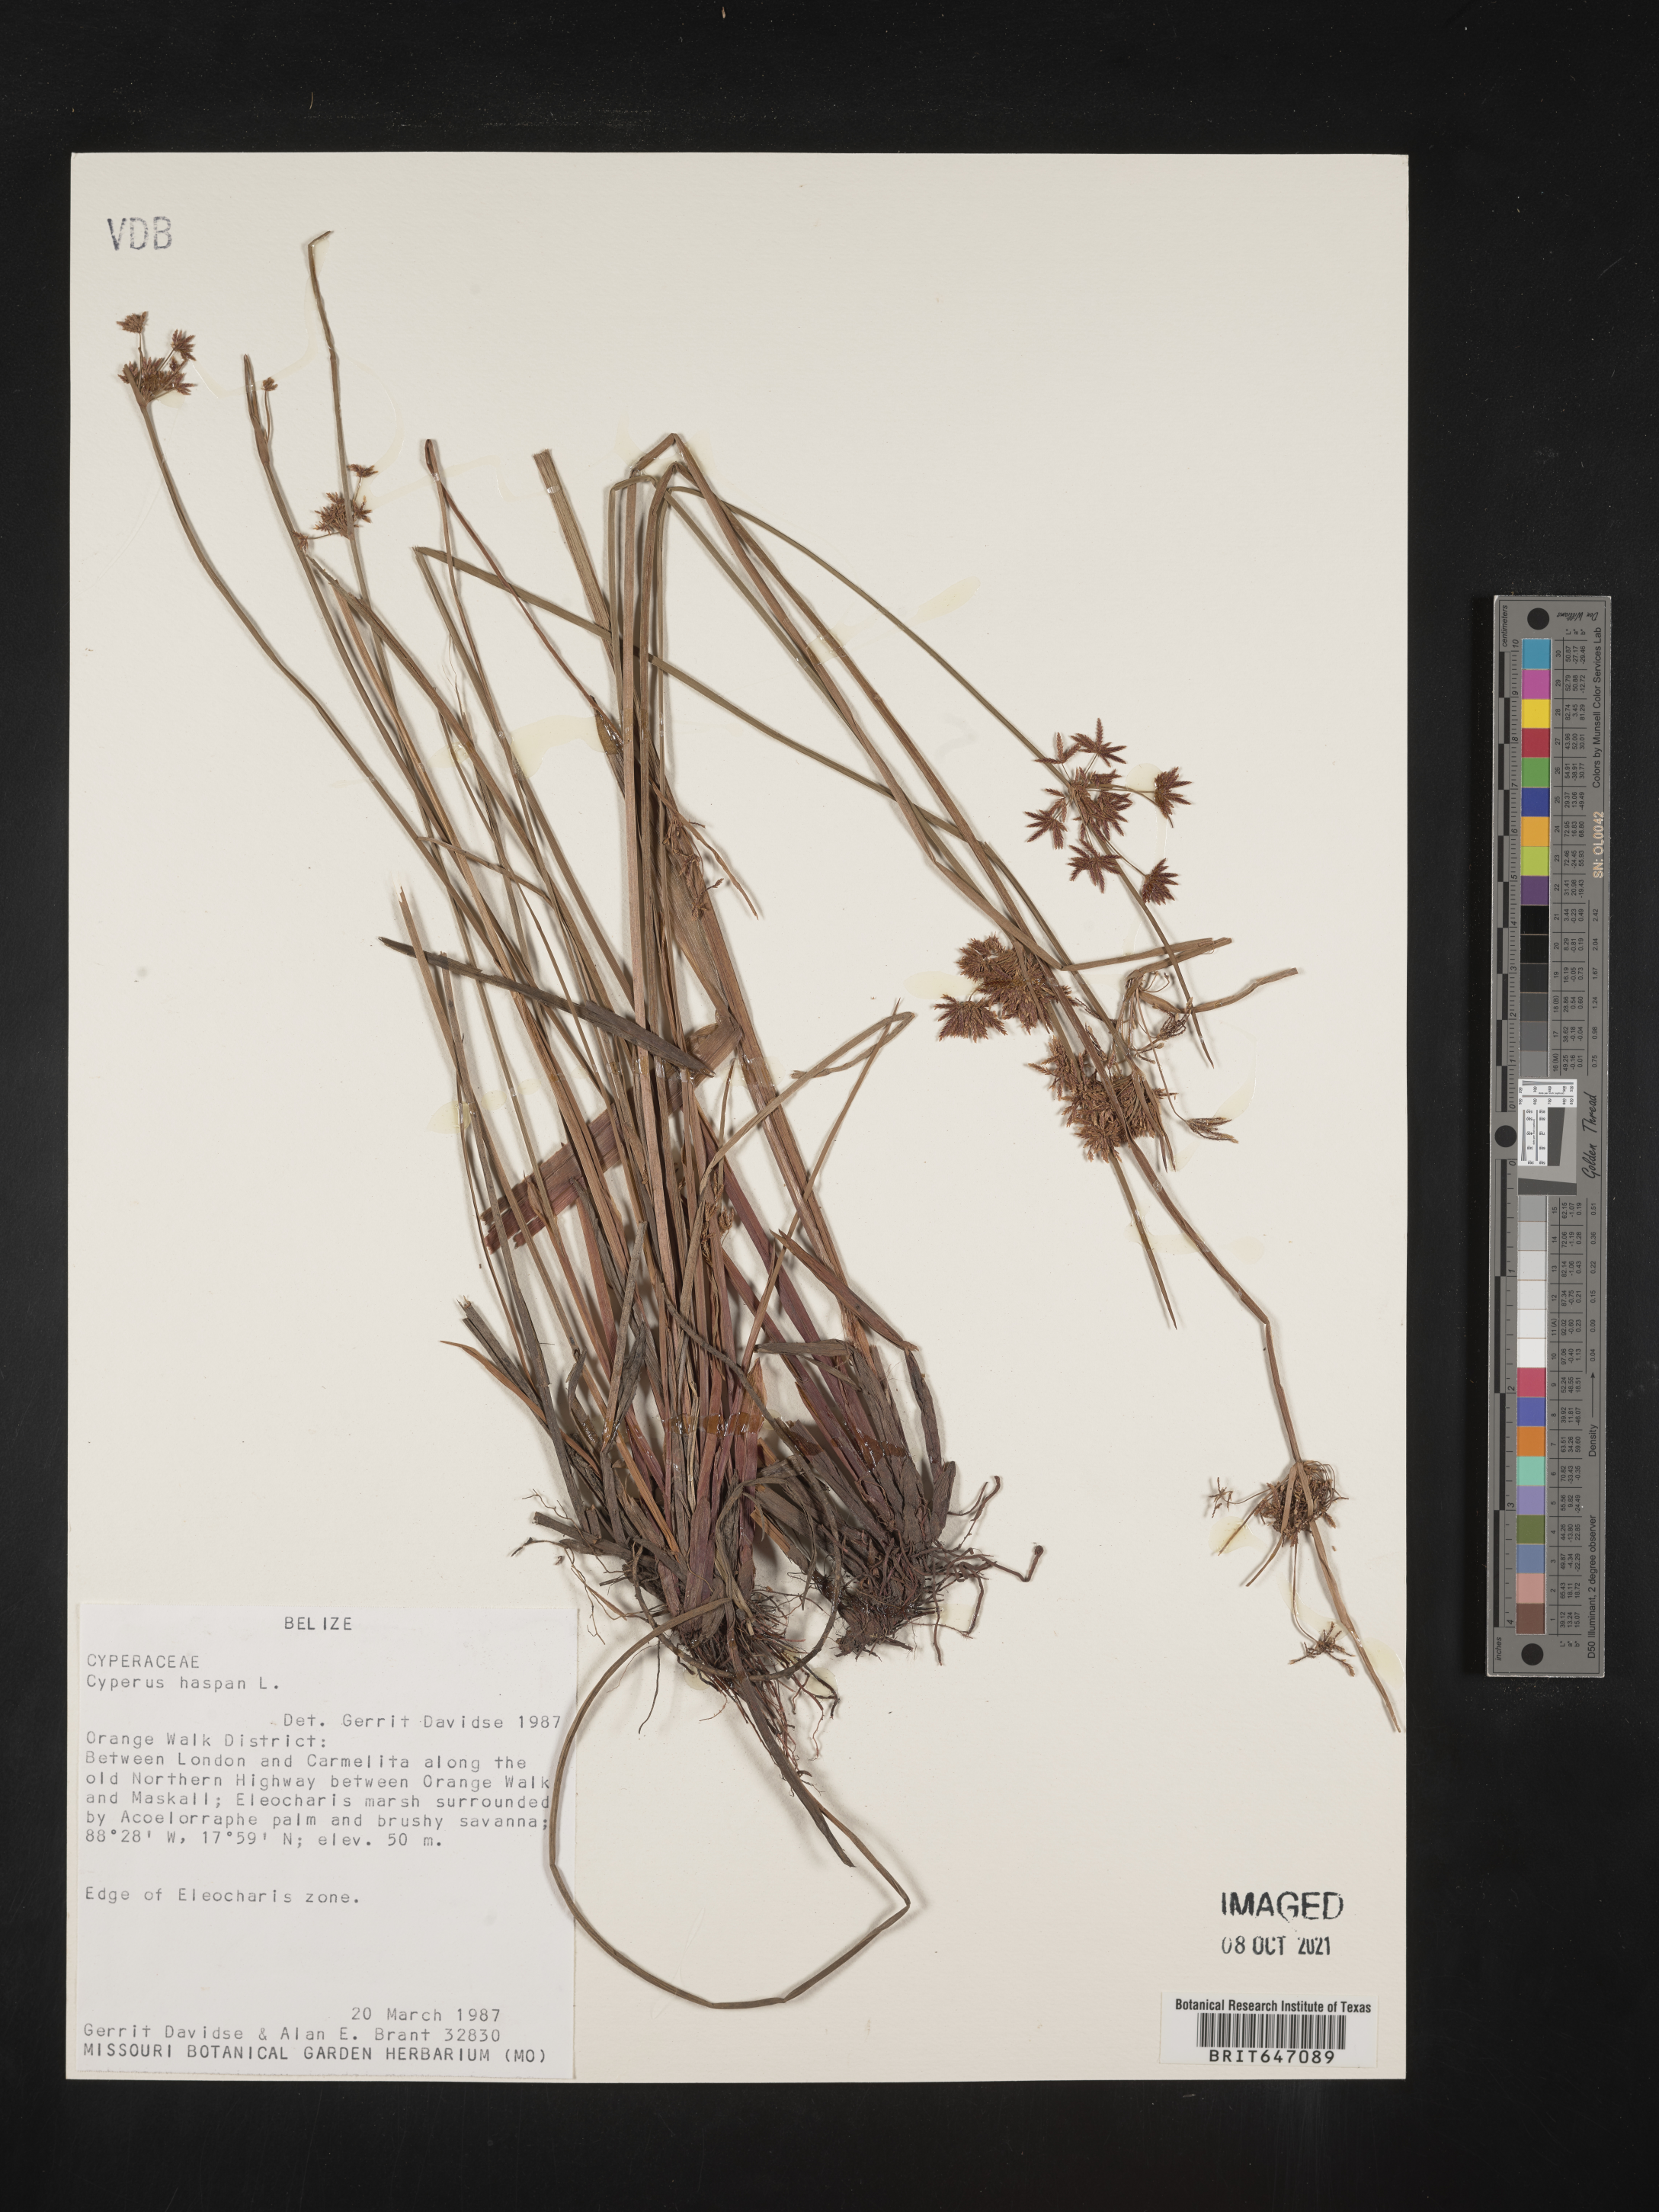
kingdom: Plantae
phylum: Tracheophyta
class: Liliopsida
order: Poales
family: Cyperaceae
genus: Cyperus
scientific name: Cyperus haspan
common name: Haspan flatsedge
